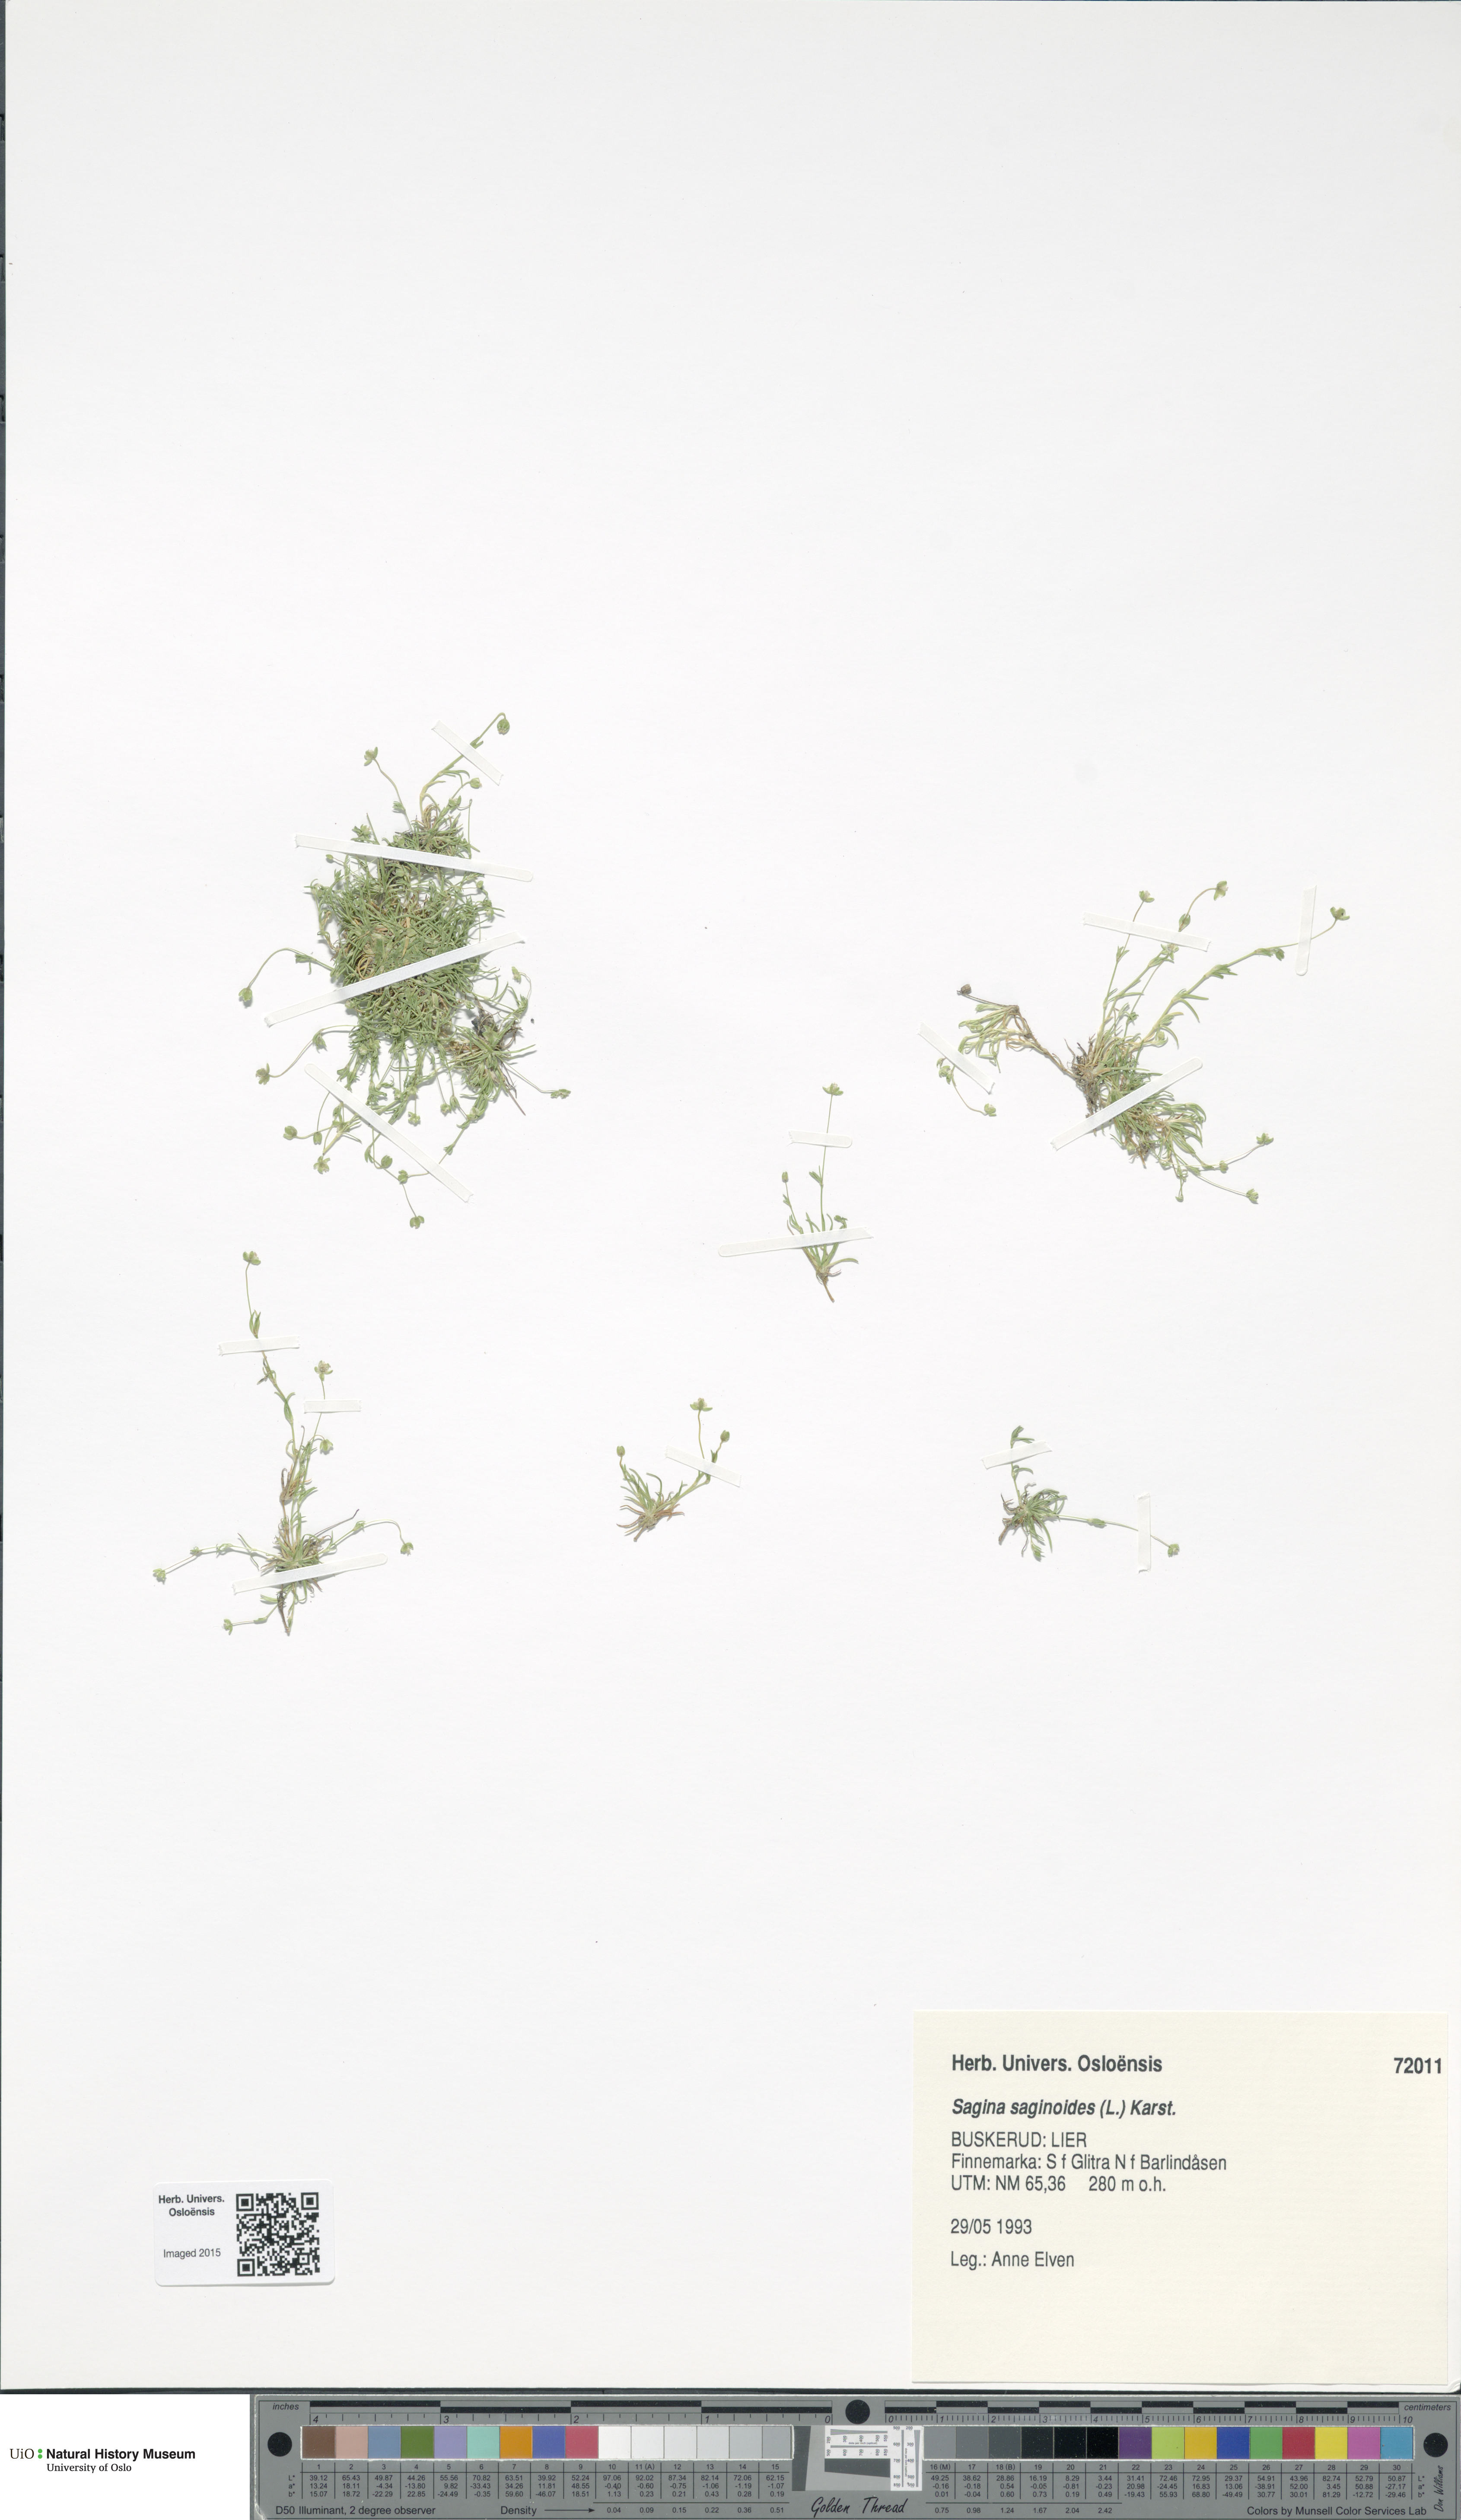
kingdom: Plantae
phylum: Tracheophyta
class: Magnoliopsida
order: Caryophyllales
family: Caryophyllaceae
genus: Sagina
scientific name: Sagina saginoides
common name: Alpine pearlwort
